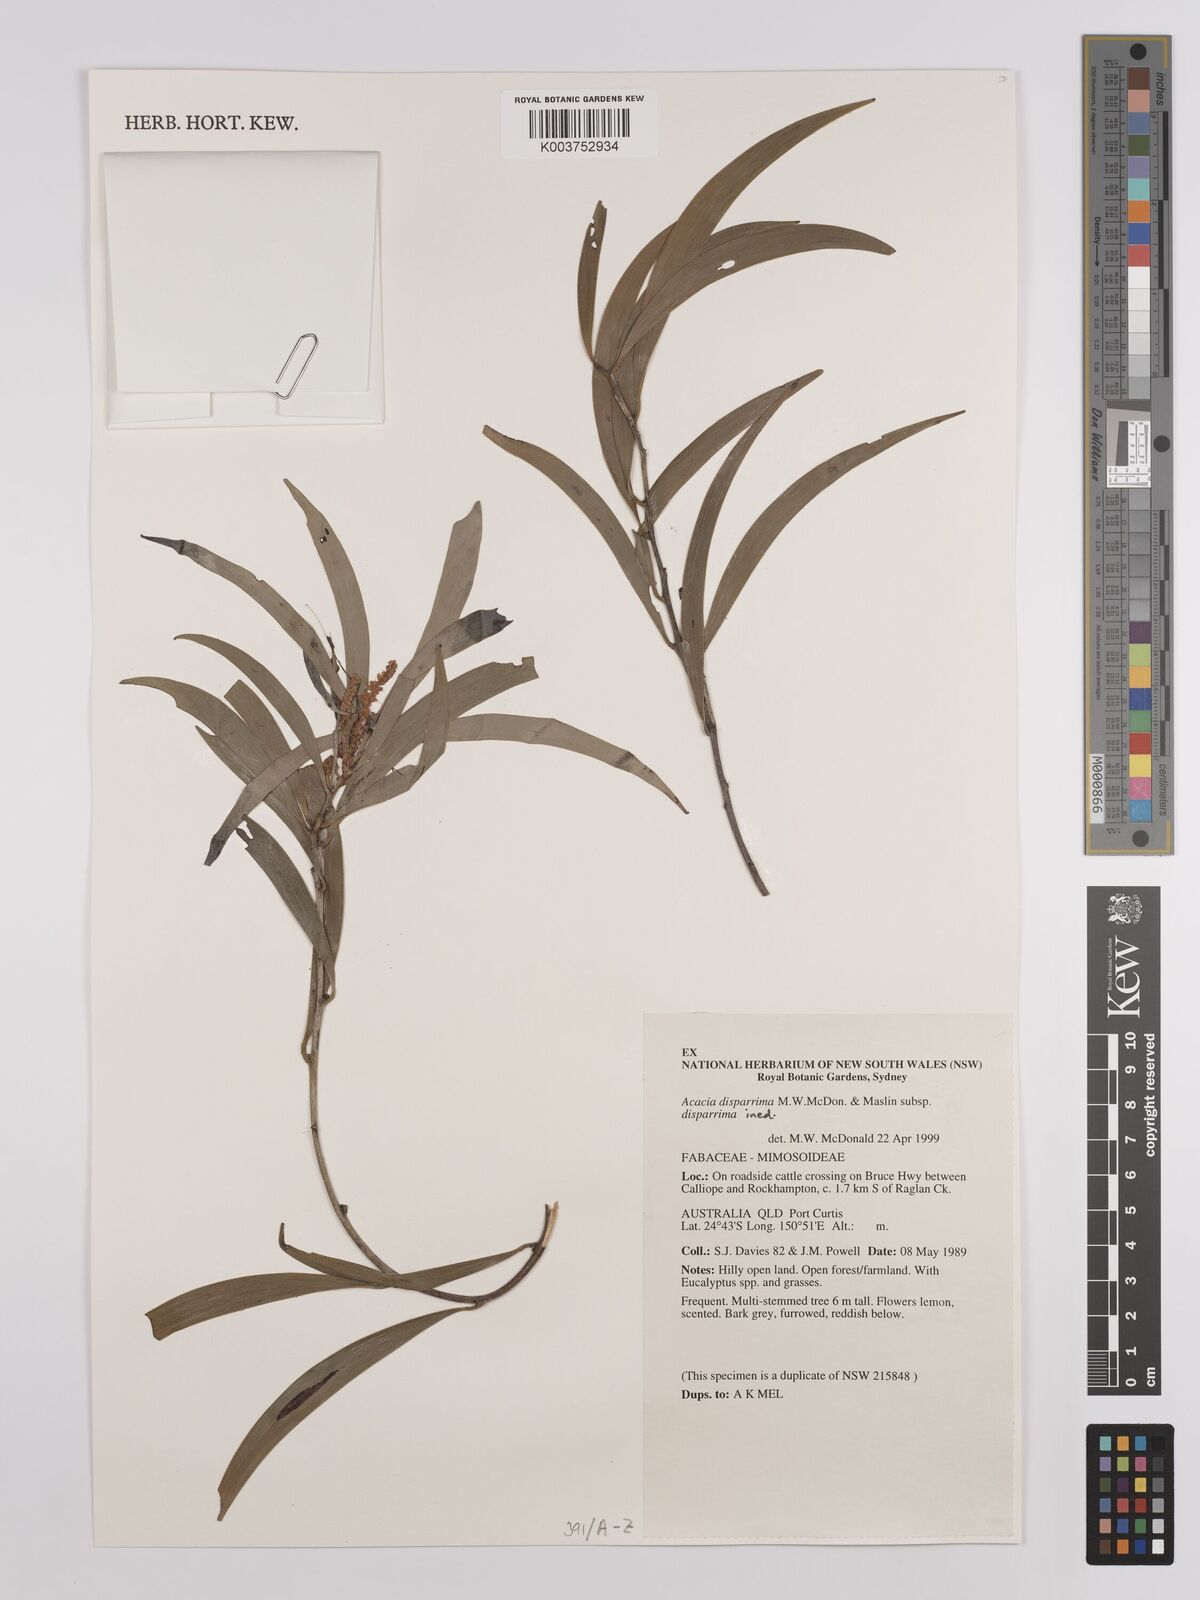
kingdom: Plantae
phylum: Tracheophyta
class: Magnoliopsida
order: Fabales
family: Fabaceae
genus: Acacia
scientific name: Acacia disparrima
